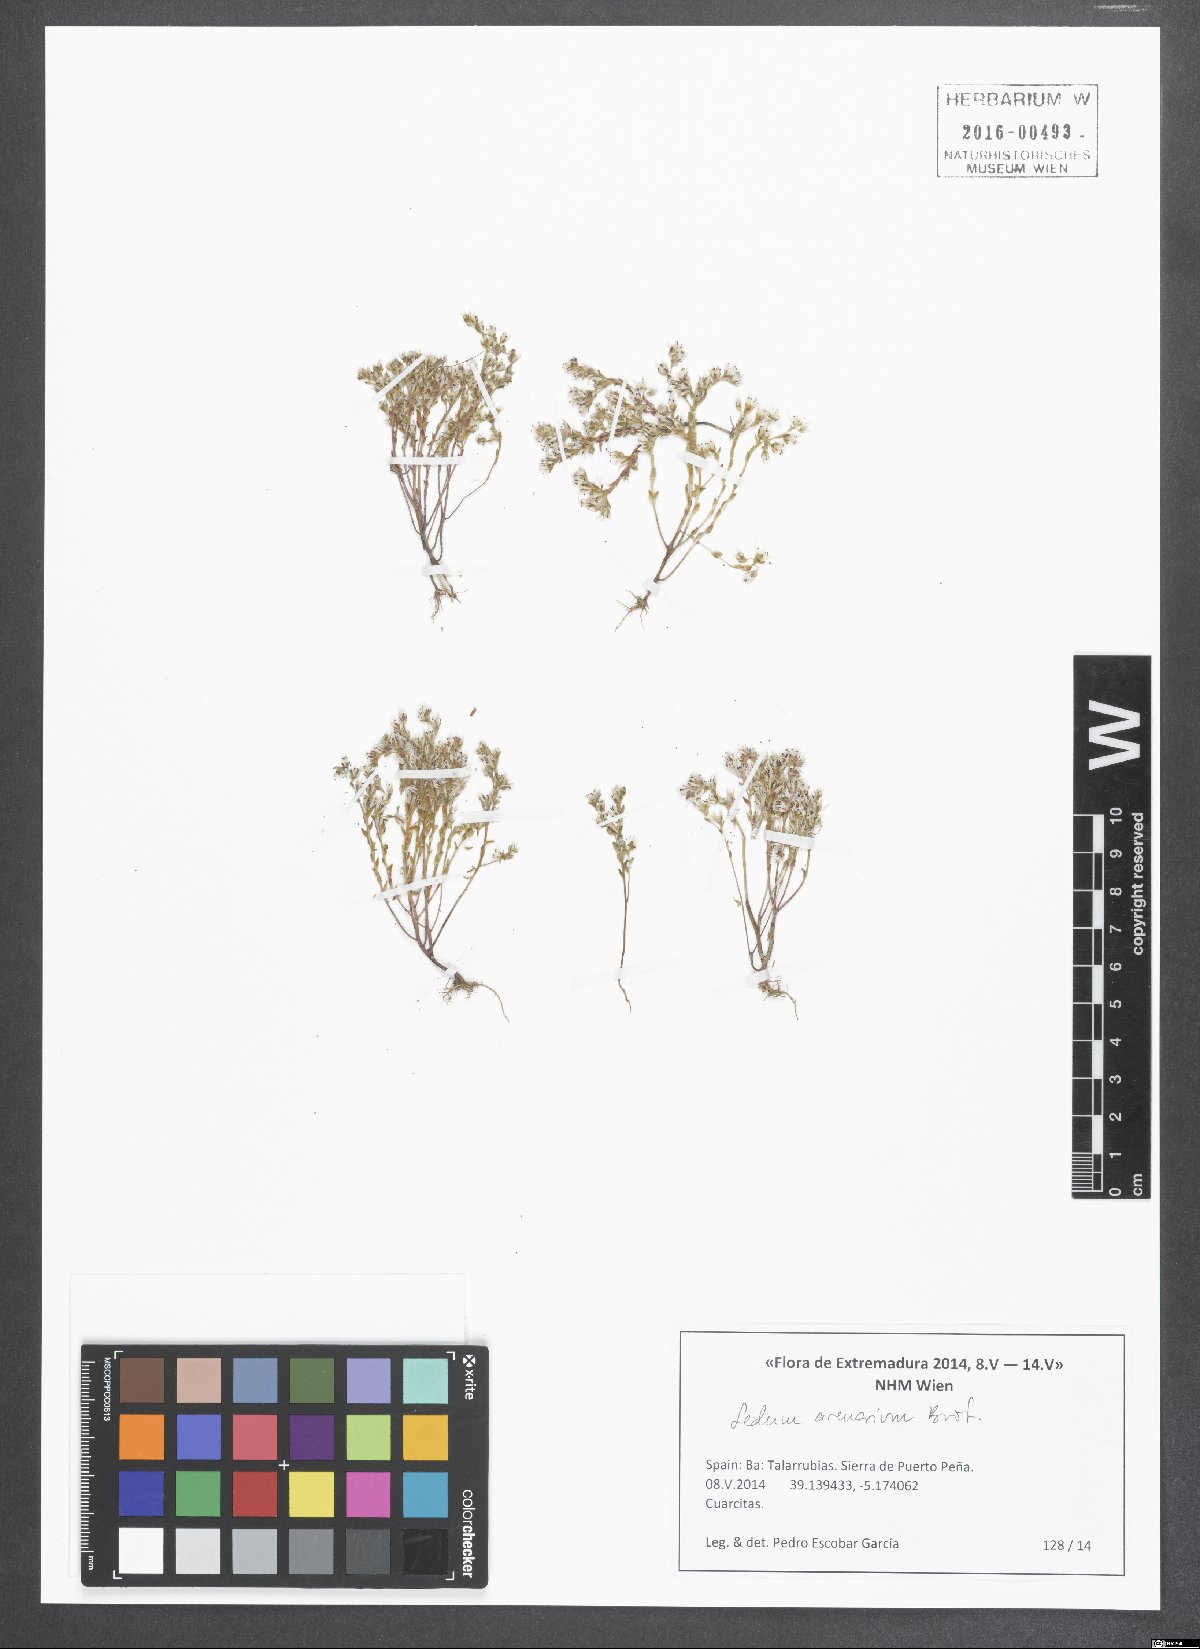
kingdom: Plantae
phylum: Tracheophyta
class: Magnoliopsida
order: Saxifragales
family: Crassulaceae
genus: Sedum
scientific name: Sedum arenarium
